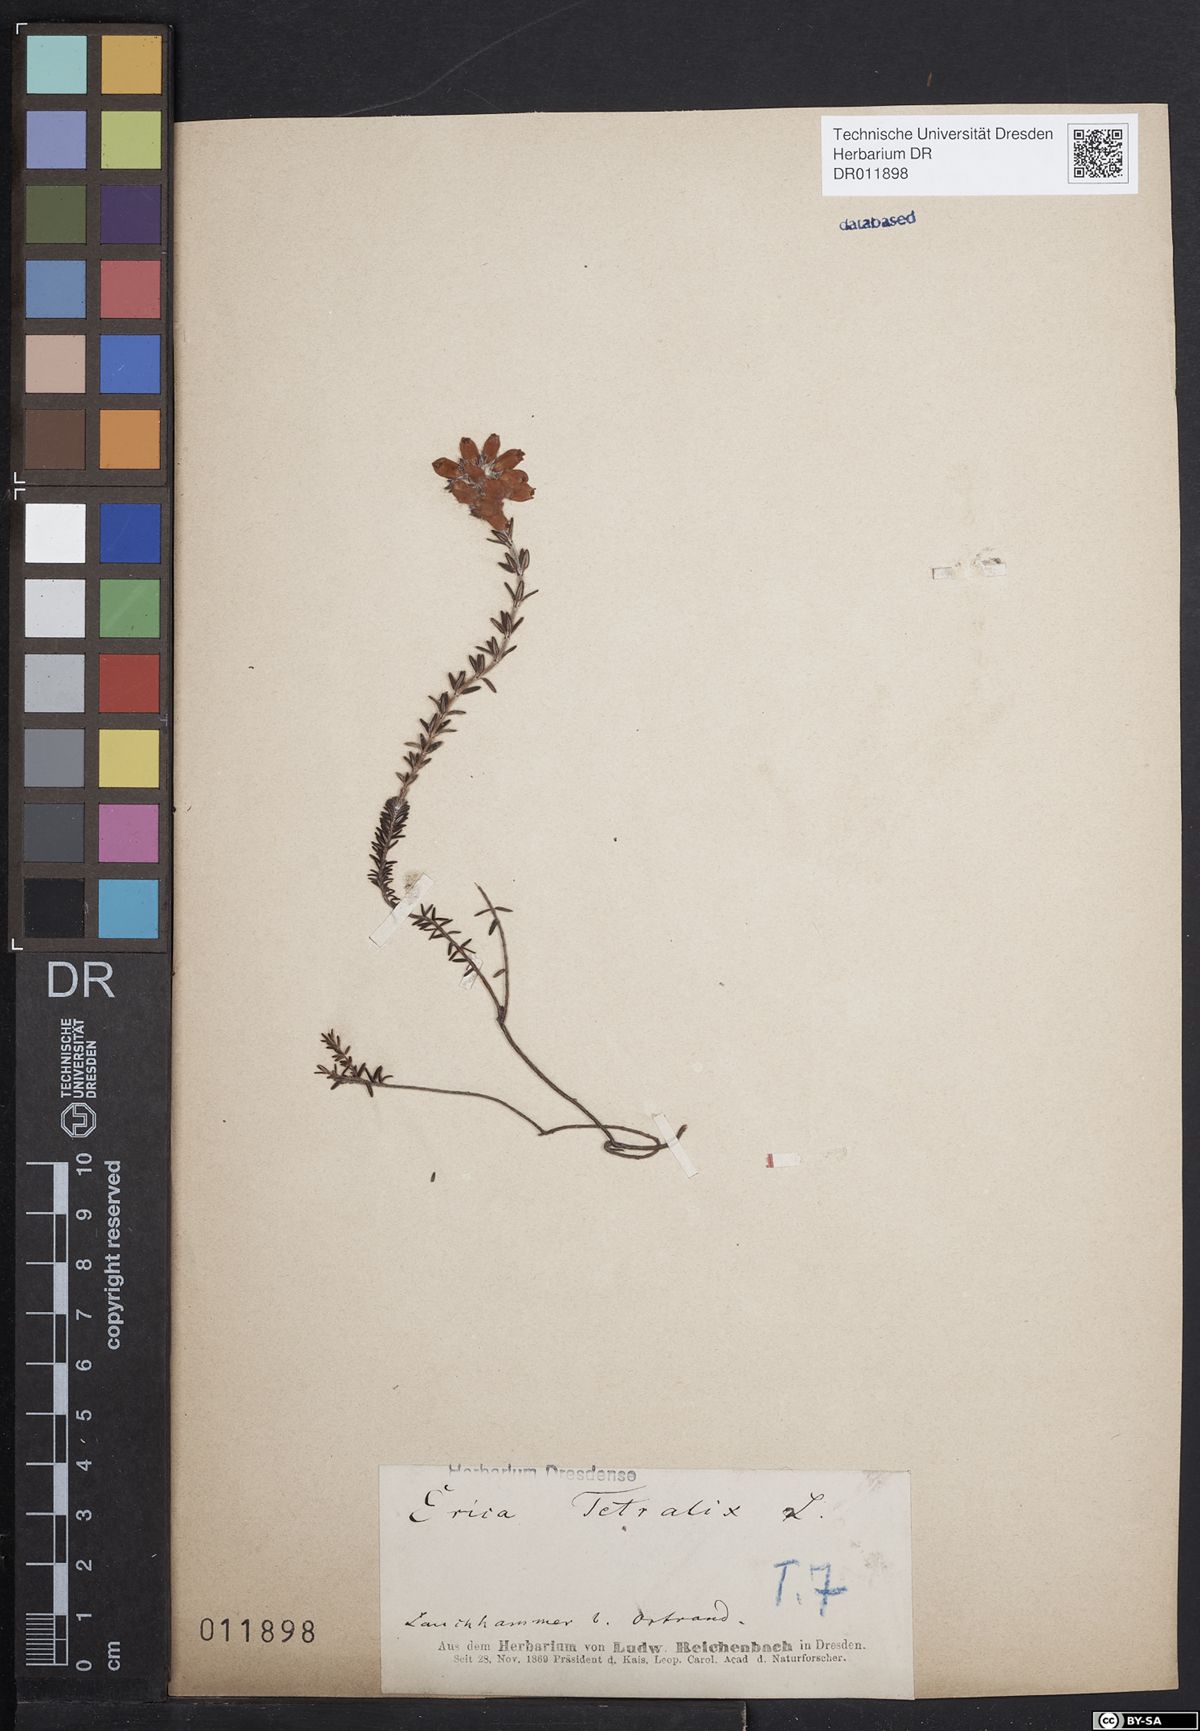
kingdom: Plantae
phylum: Tracheophyta
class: Magnoliopsida
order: Ericales
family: Ericaceae
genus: Erica
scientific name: Erica tetralix
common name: Cross-leaved heath
